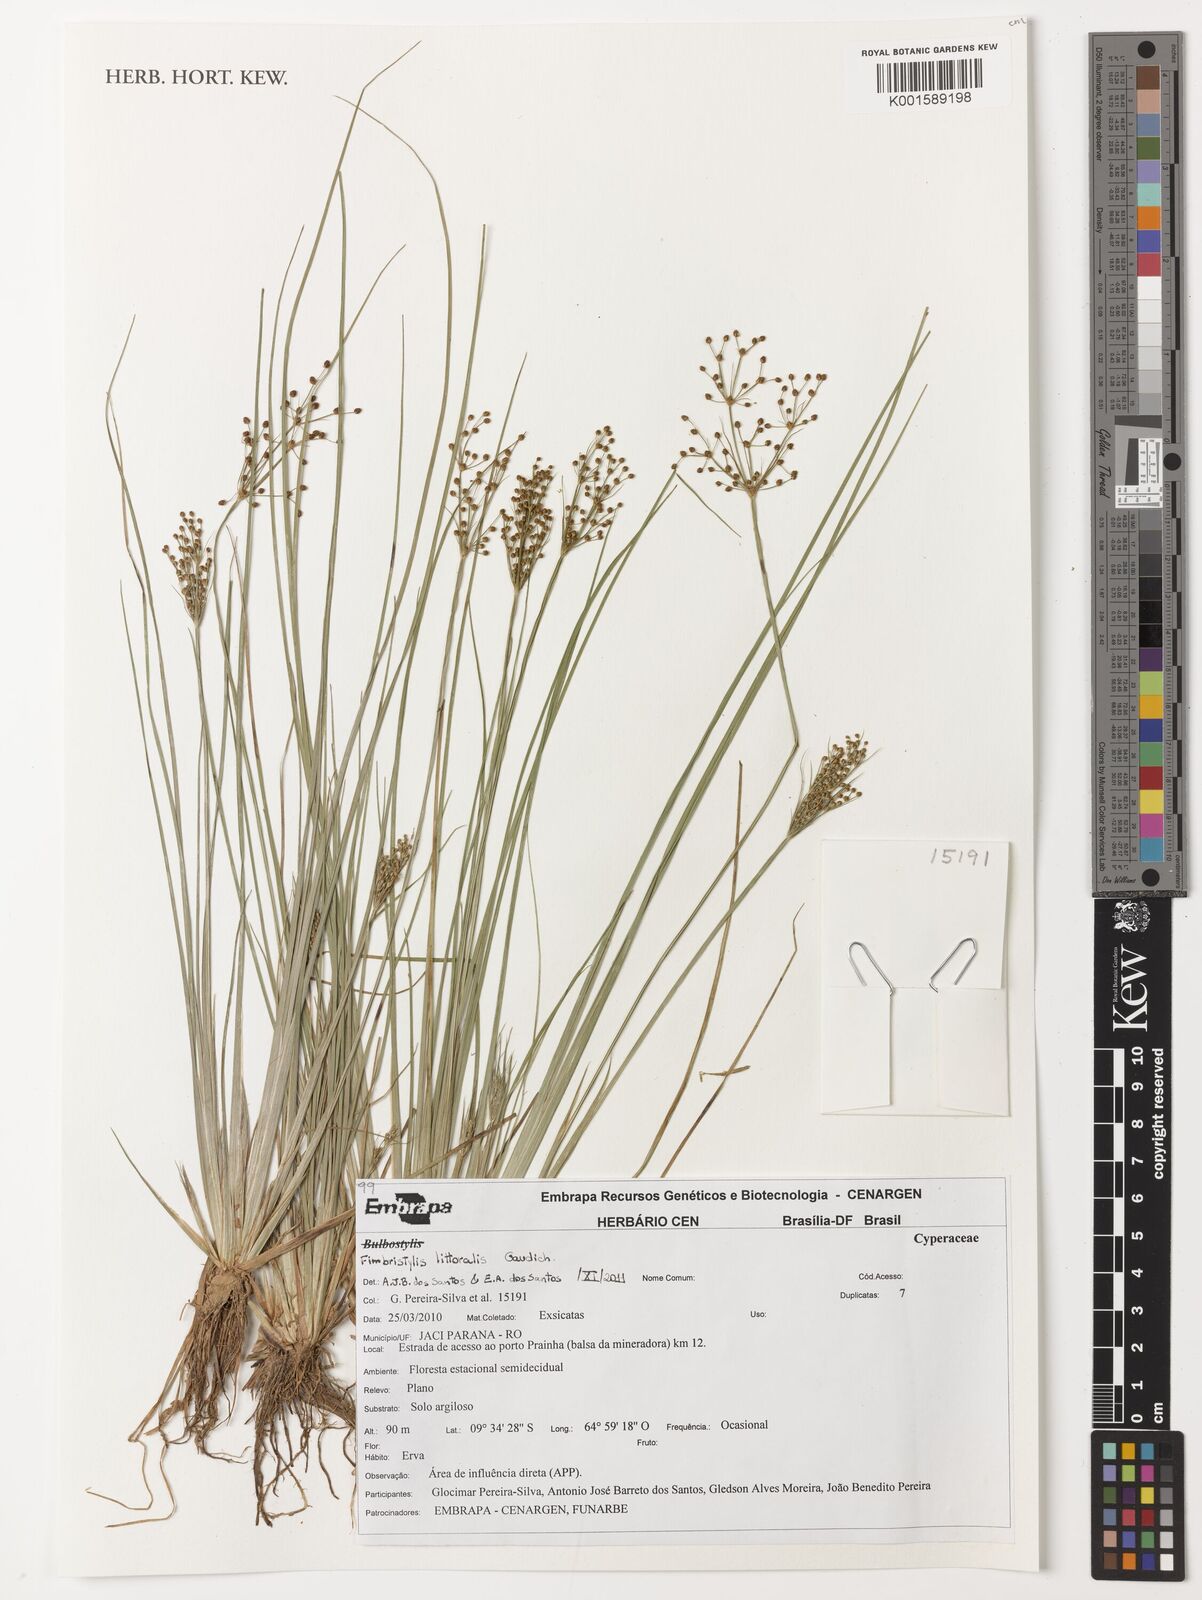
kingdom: Plantae
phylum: Tracheophyta
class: Liliopsida
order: Poales
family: Cyperaceae
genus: Fimbristylis
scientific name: Fimbristylis littoralis
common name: Fimbry
